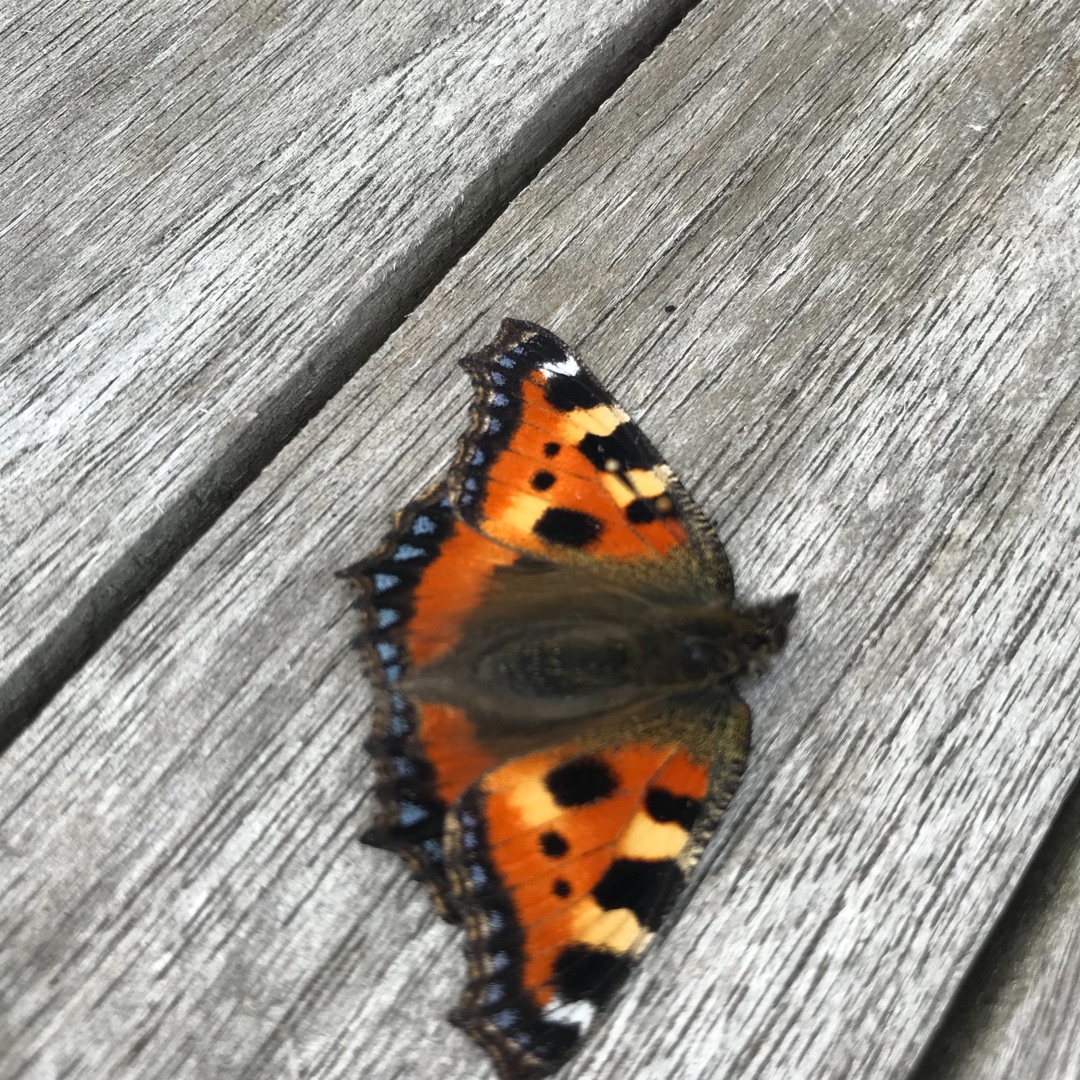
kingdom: Animalia
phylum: Arthropoda
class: Insecta
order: Lepidoptera
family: Nymphalidae
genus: Aglais
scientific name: Aglais urticae
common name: Nældens takvinge
